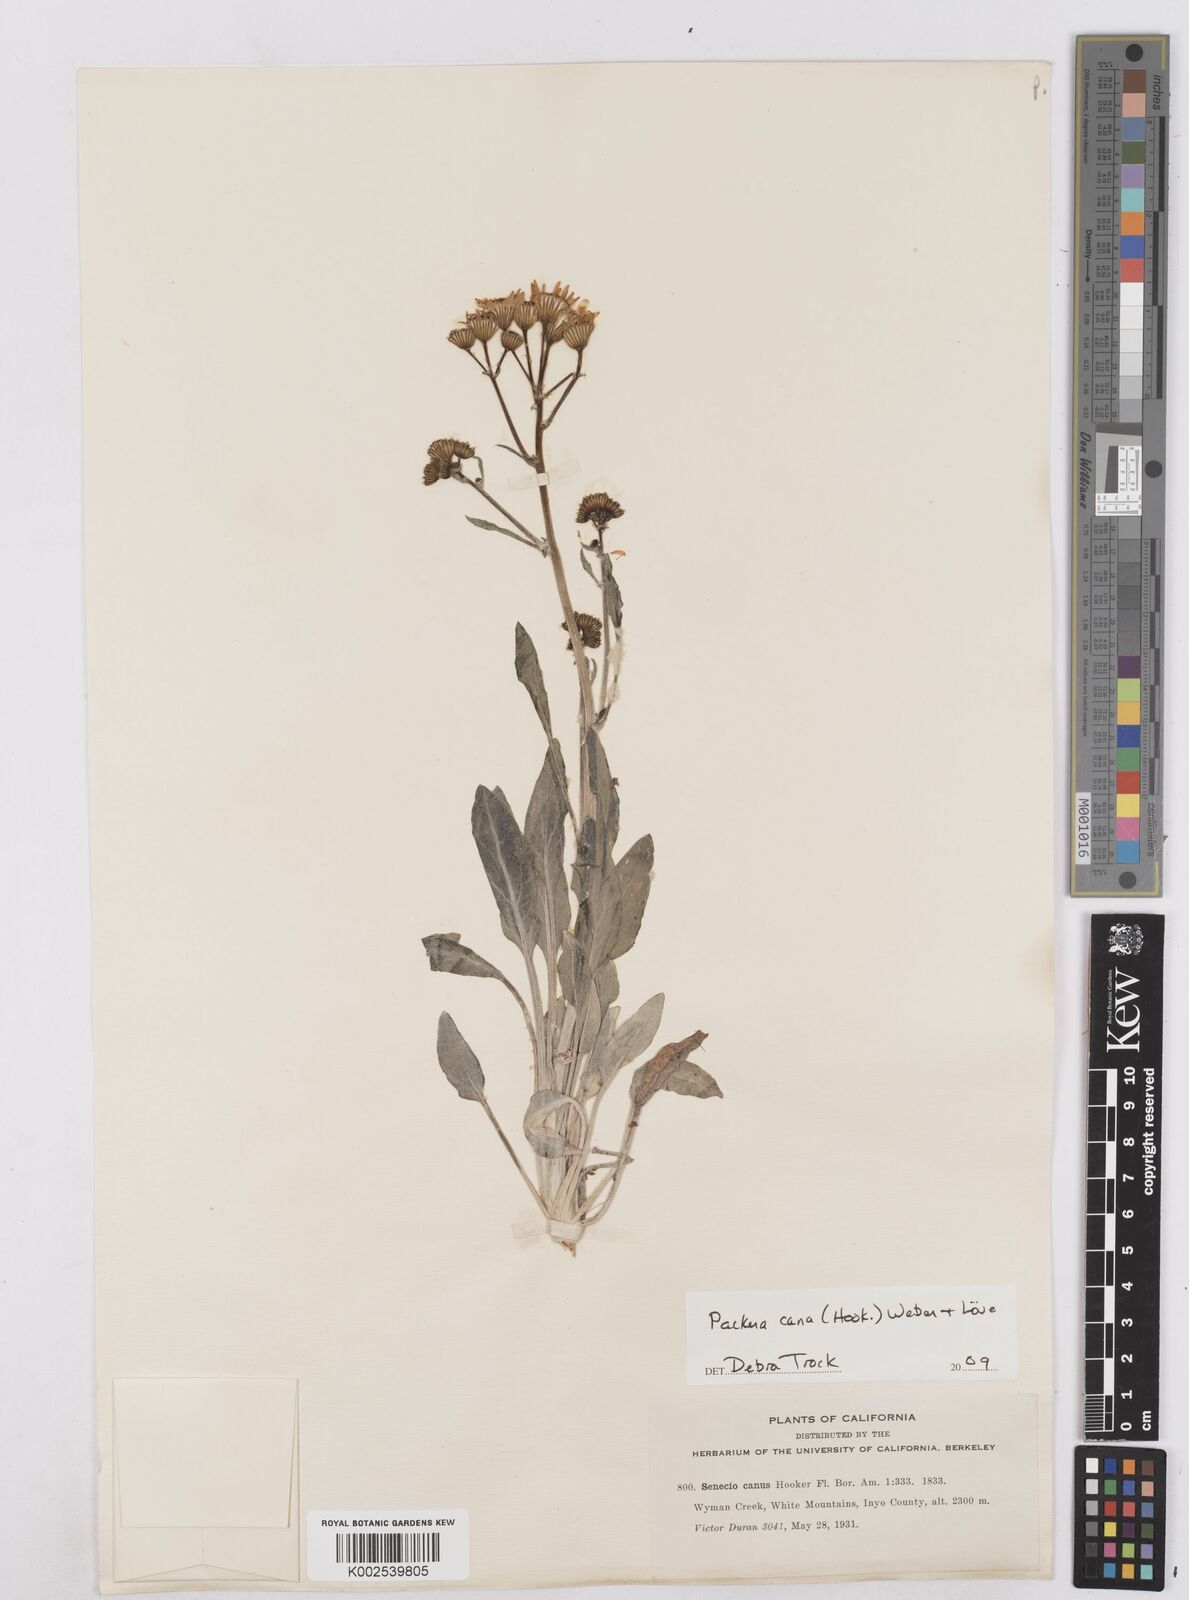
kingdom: Plantae
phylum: Tracheophyta
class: Magnoliopsida
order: Asterales
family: Asteraceae
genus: Packera
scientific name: Packera cana
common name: Woolly groundsel
